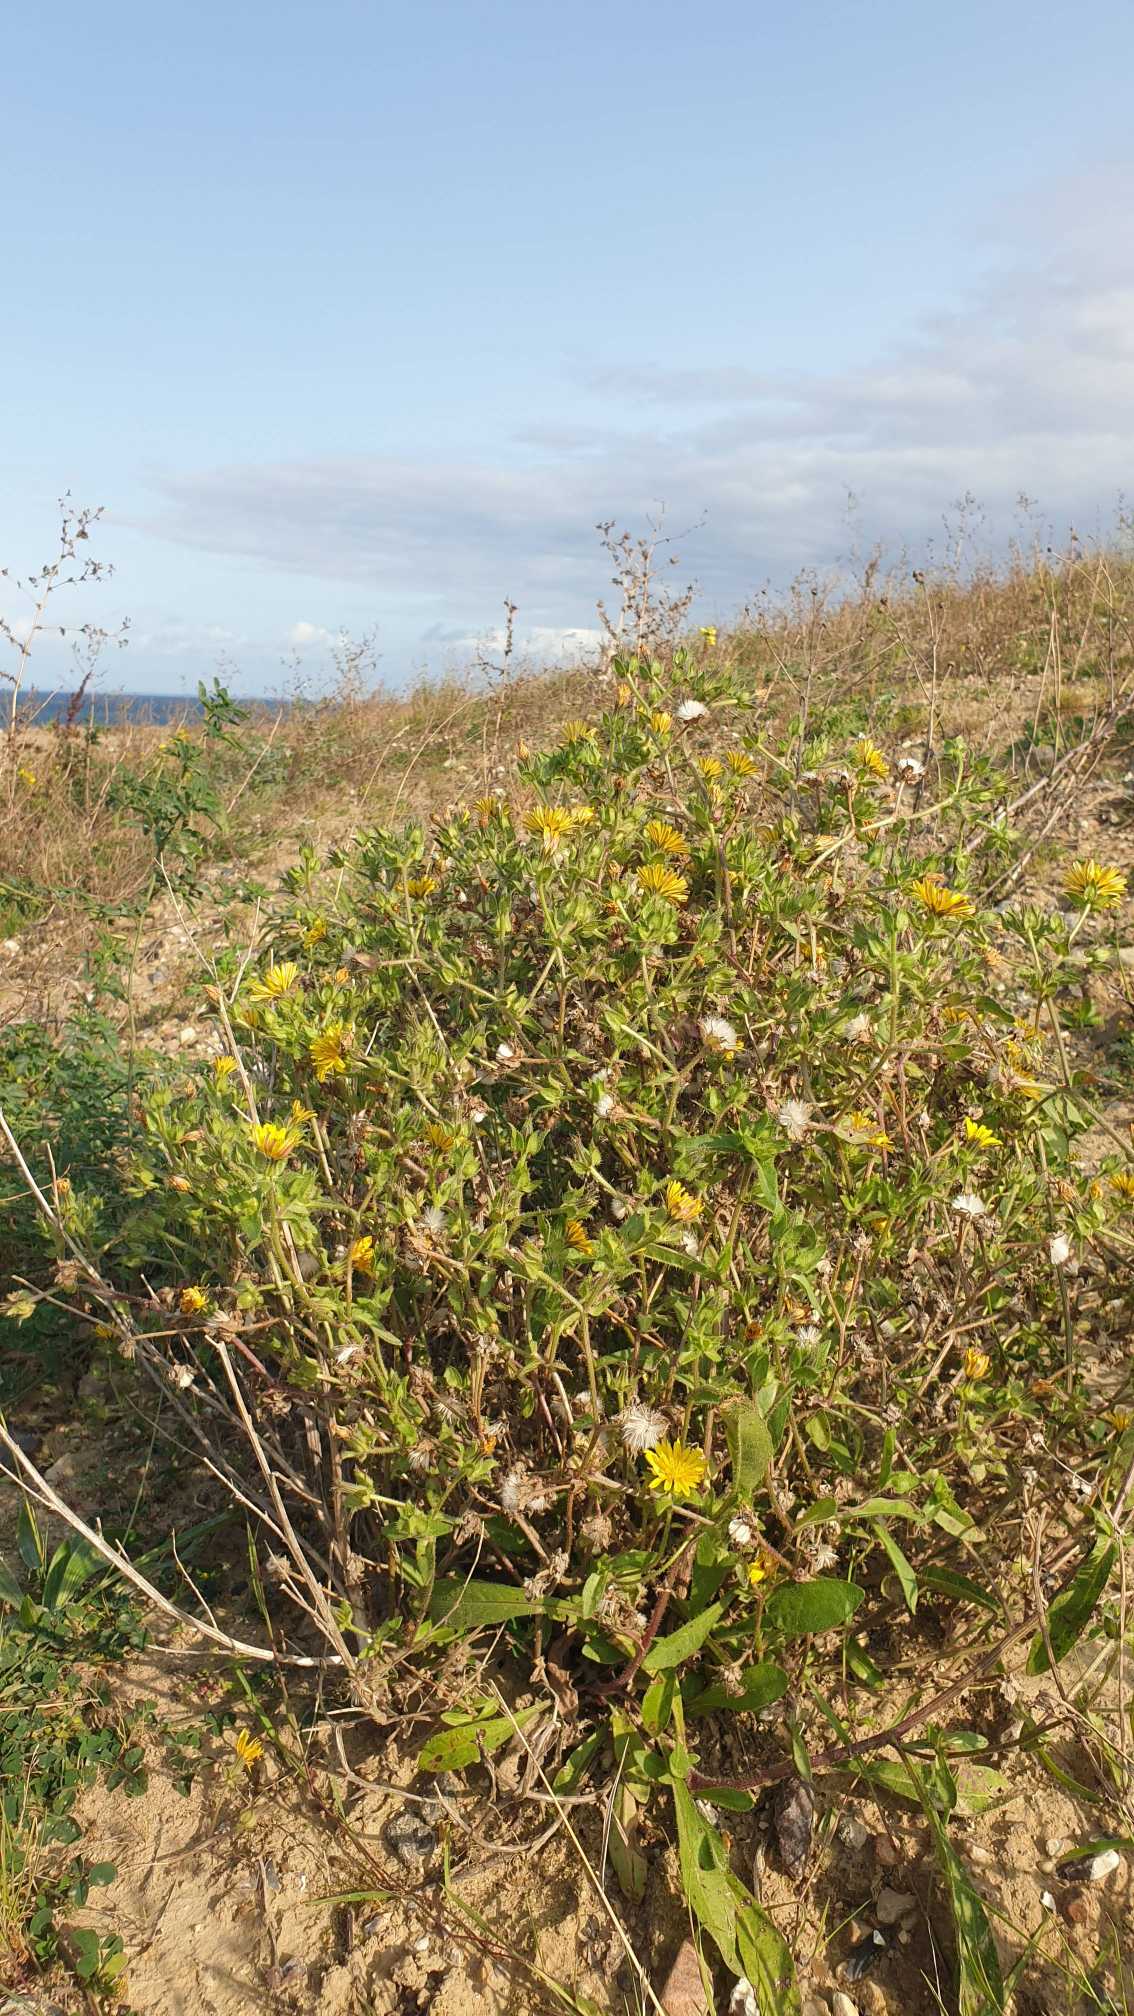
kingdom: Plantae
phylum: Tracheophyta
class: Magnoliopsida
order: Asterales
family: Asteraceae
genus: Helminthotheca
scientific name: Helminthotheca echioides
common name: Vingekurv
